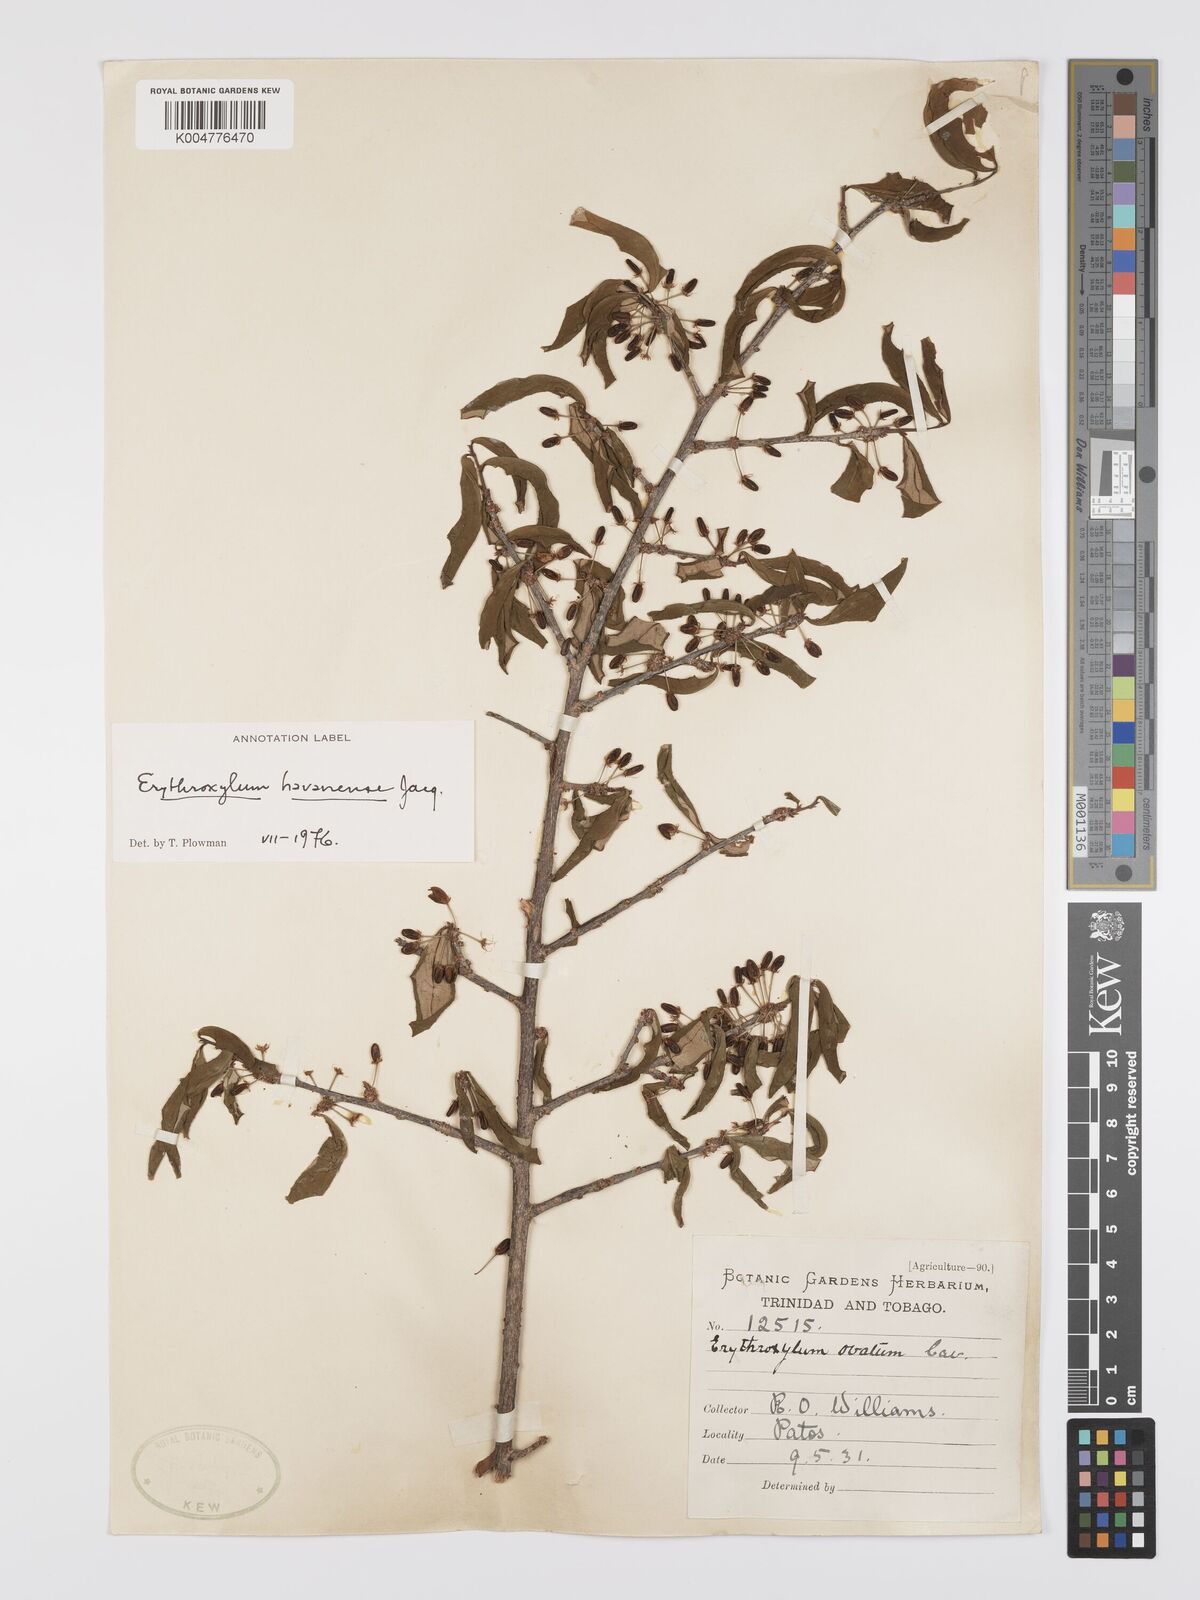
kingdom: Plantae
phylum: Tracheophyta
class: Magnoliopsida
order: Malpighiales
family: Erythroxylaceae
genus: Erythroxylum
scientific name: Erythroxylum
